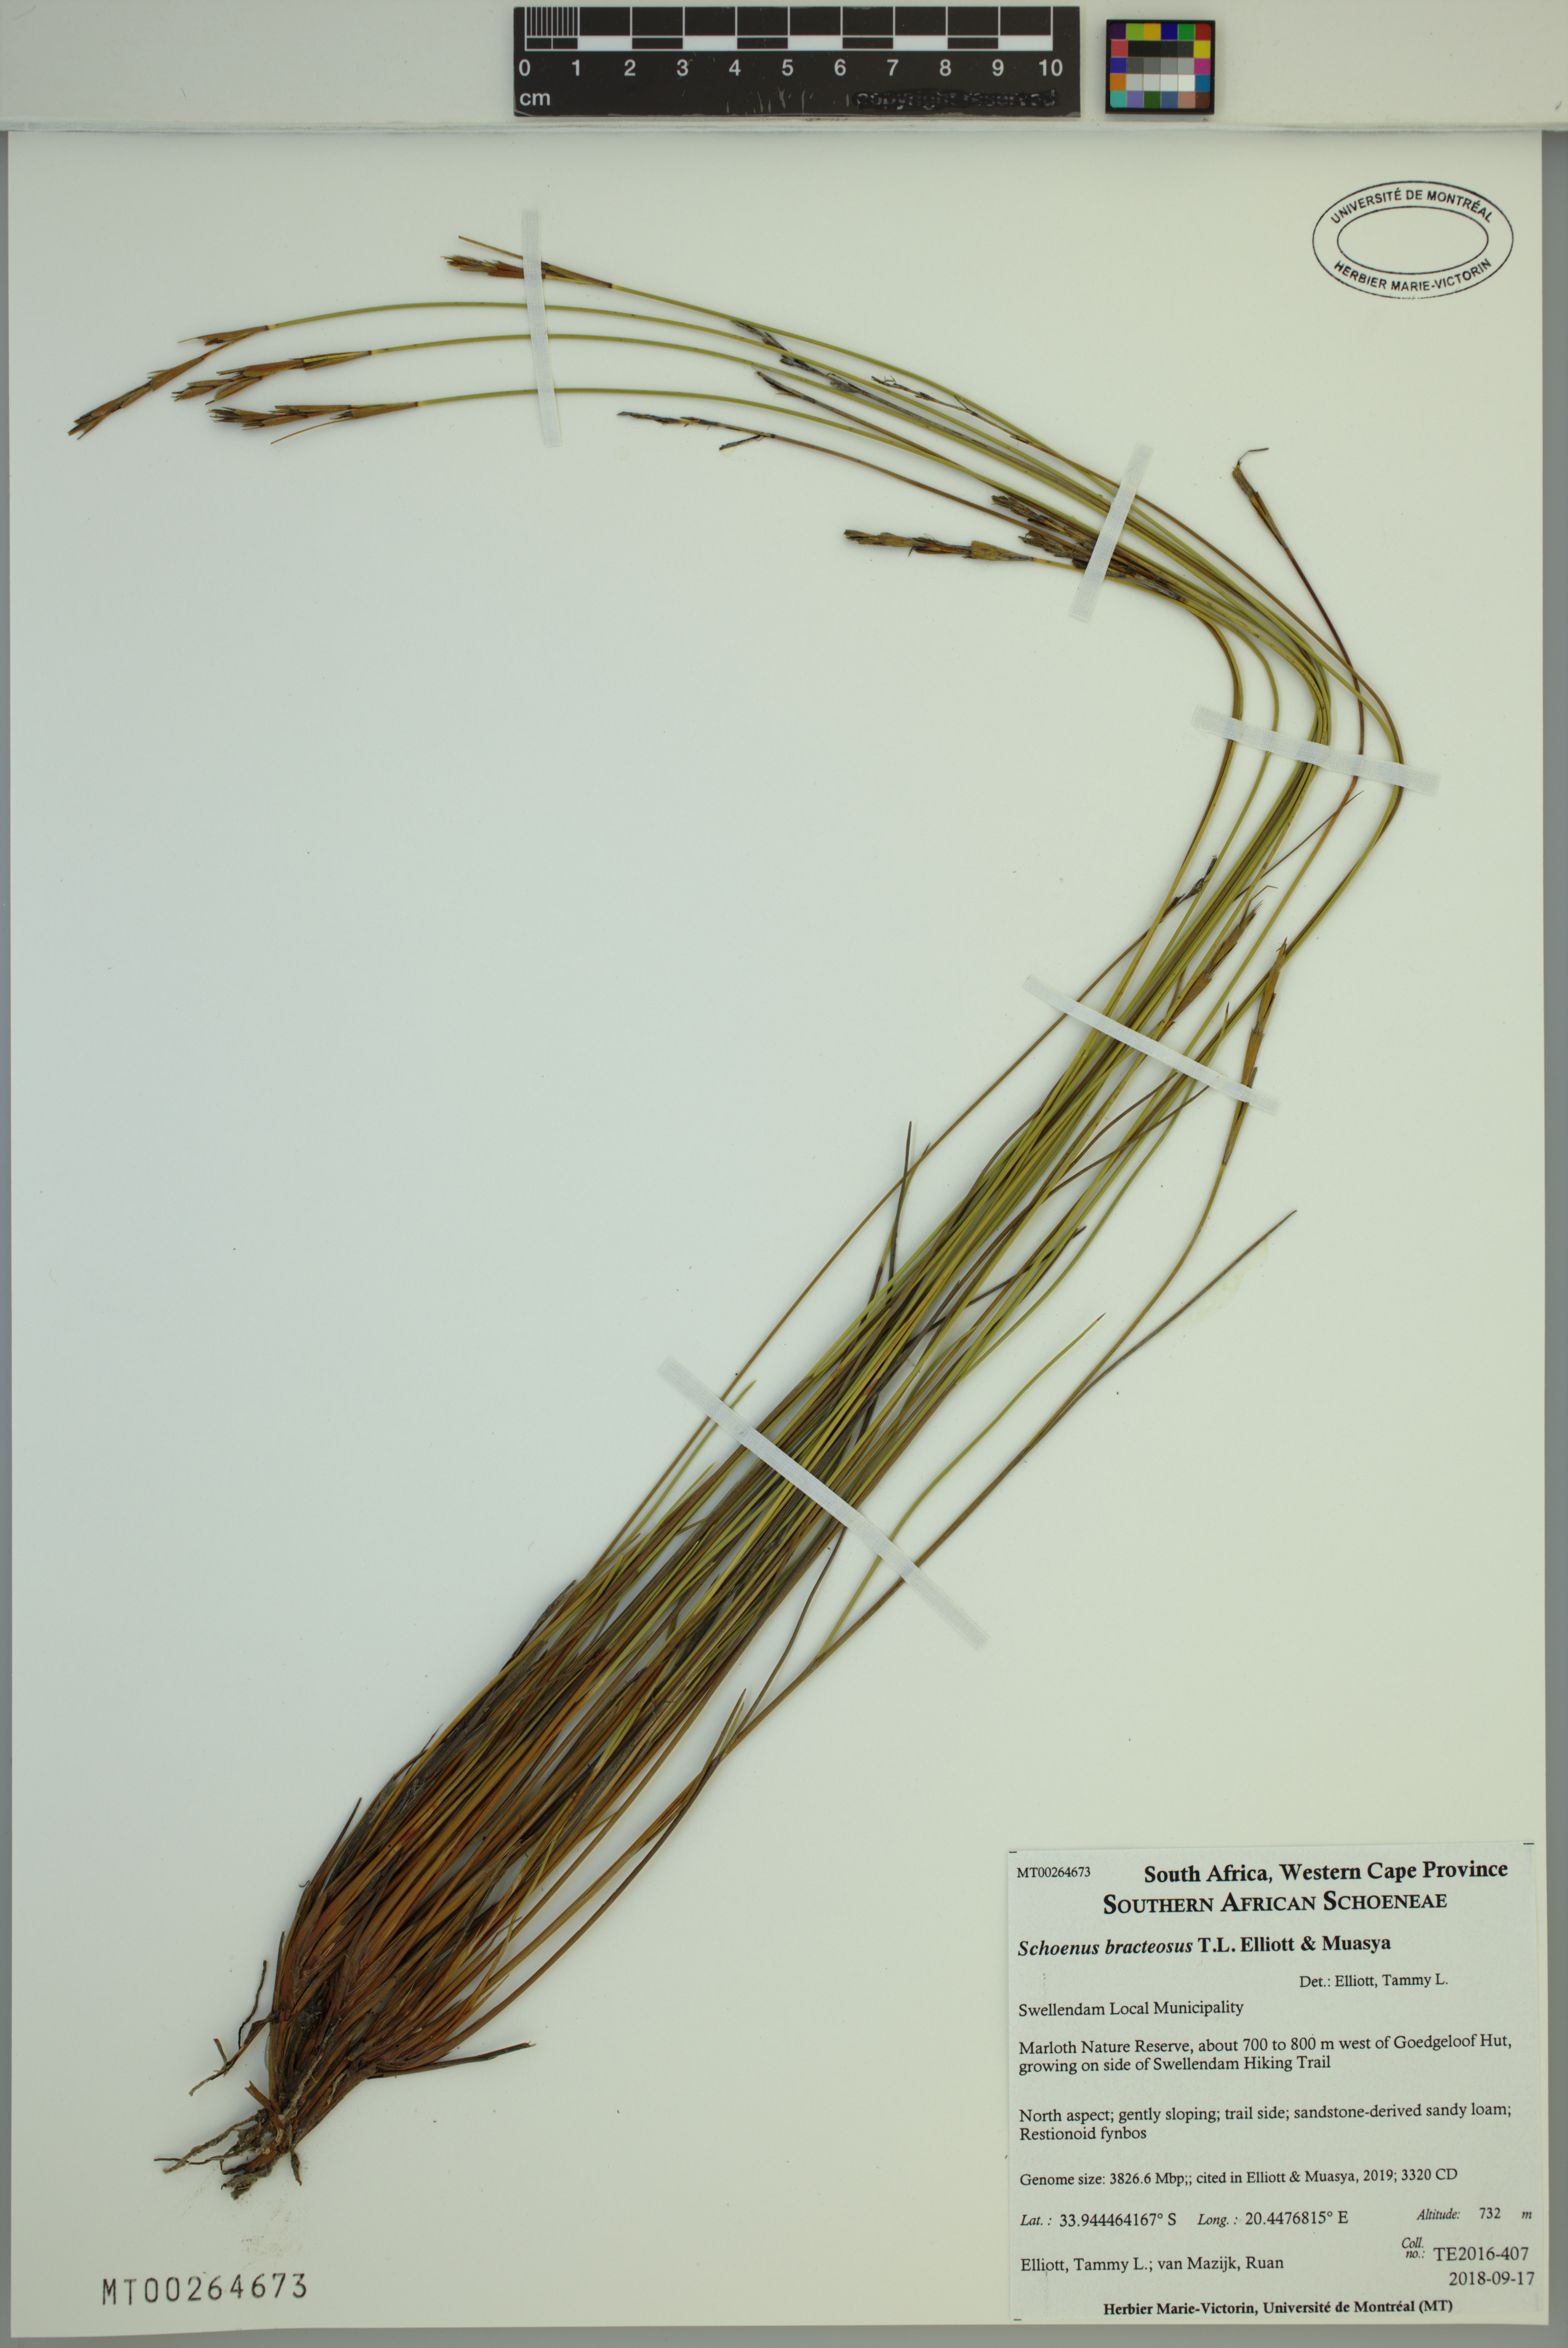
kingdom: Plantae
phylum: Tracheophyta
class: Liliopsida
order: Poales
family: Cyperaceae
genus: Schoenus
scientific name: Schoenus bracteosus
